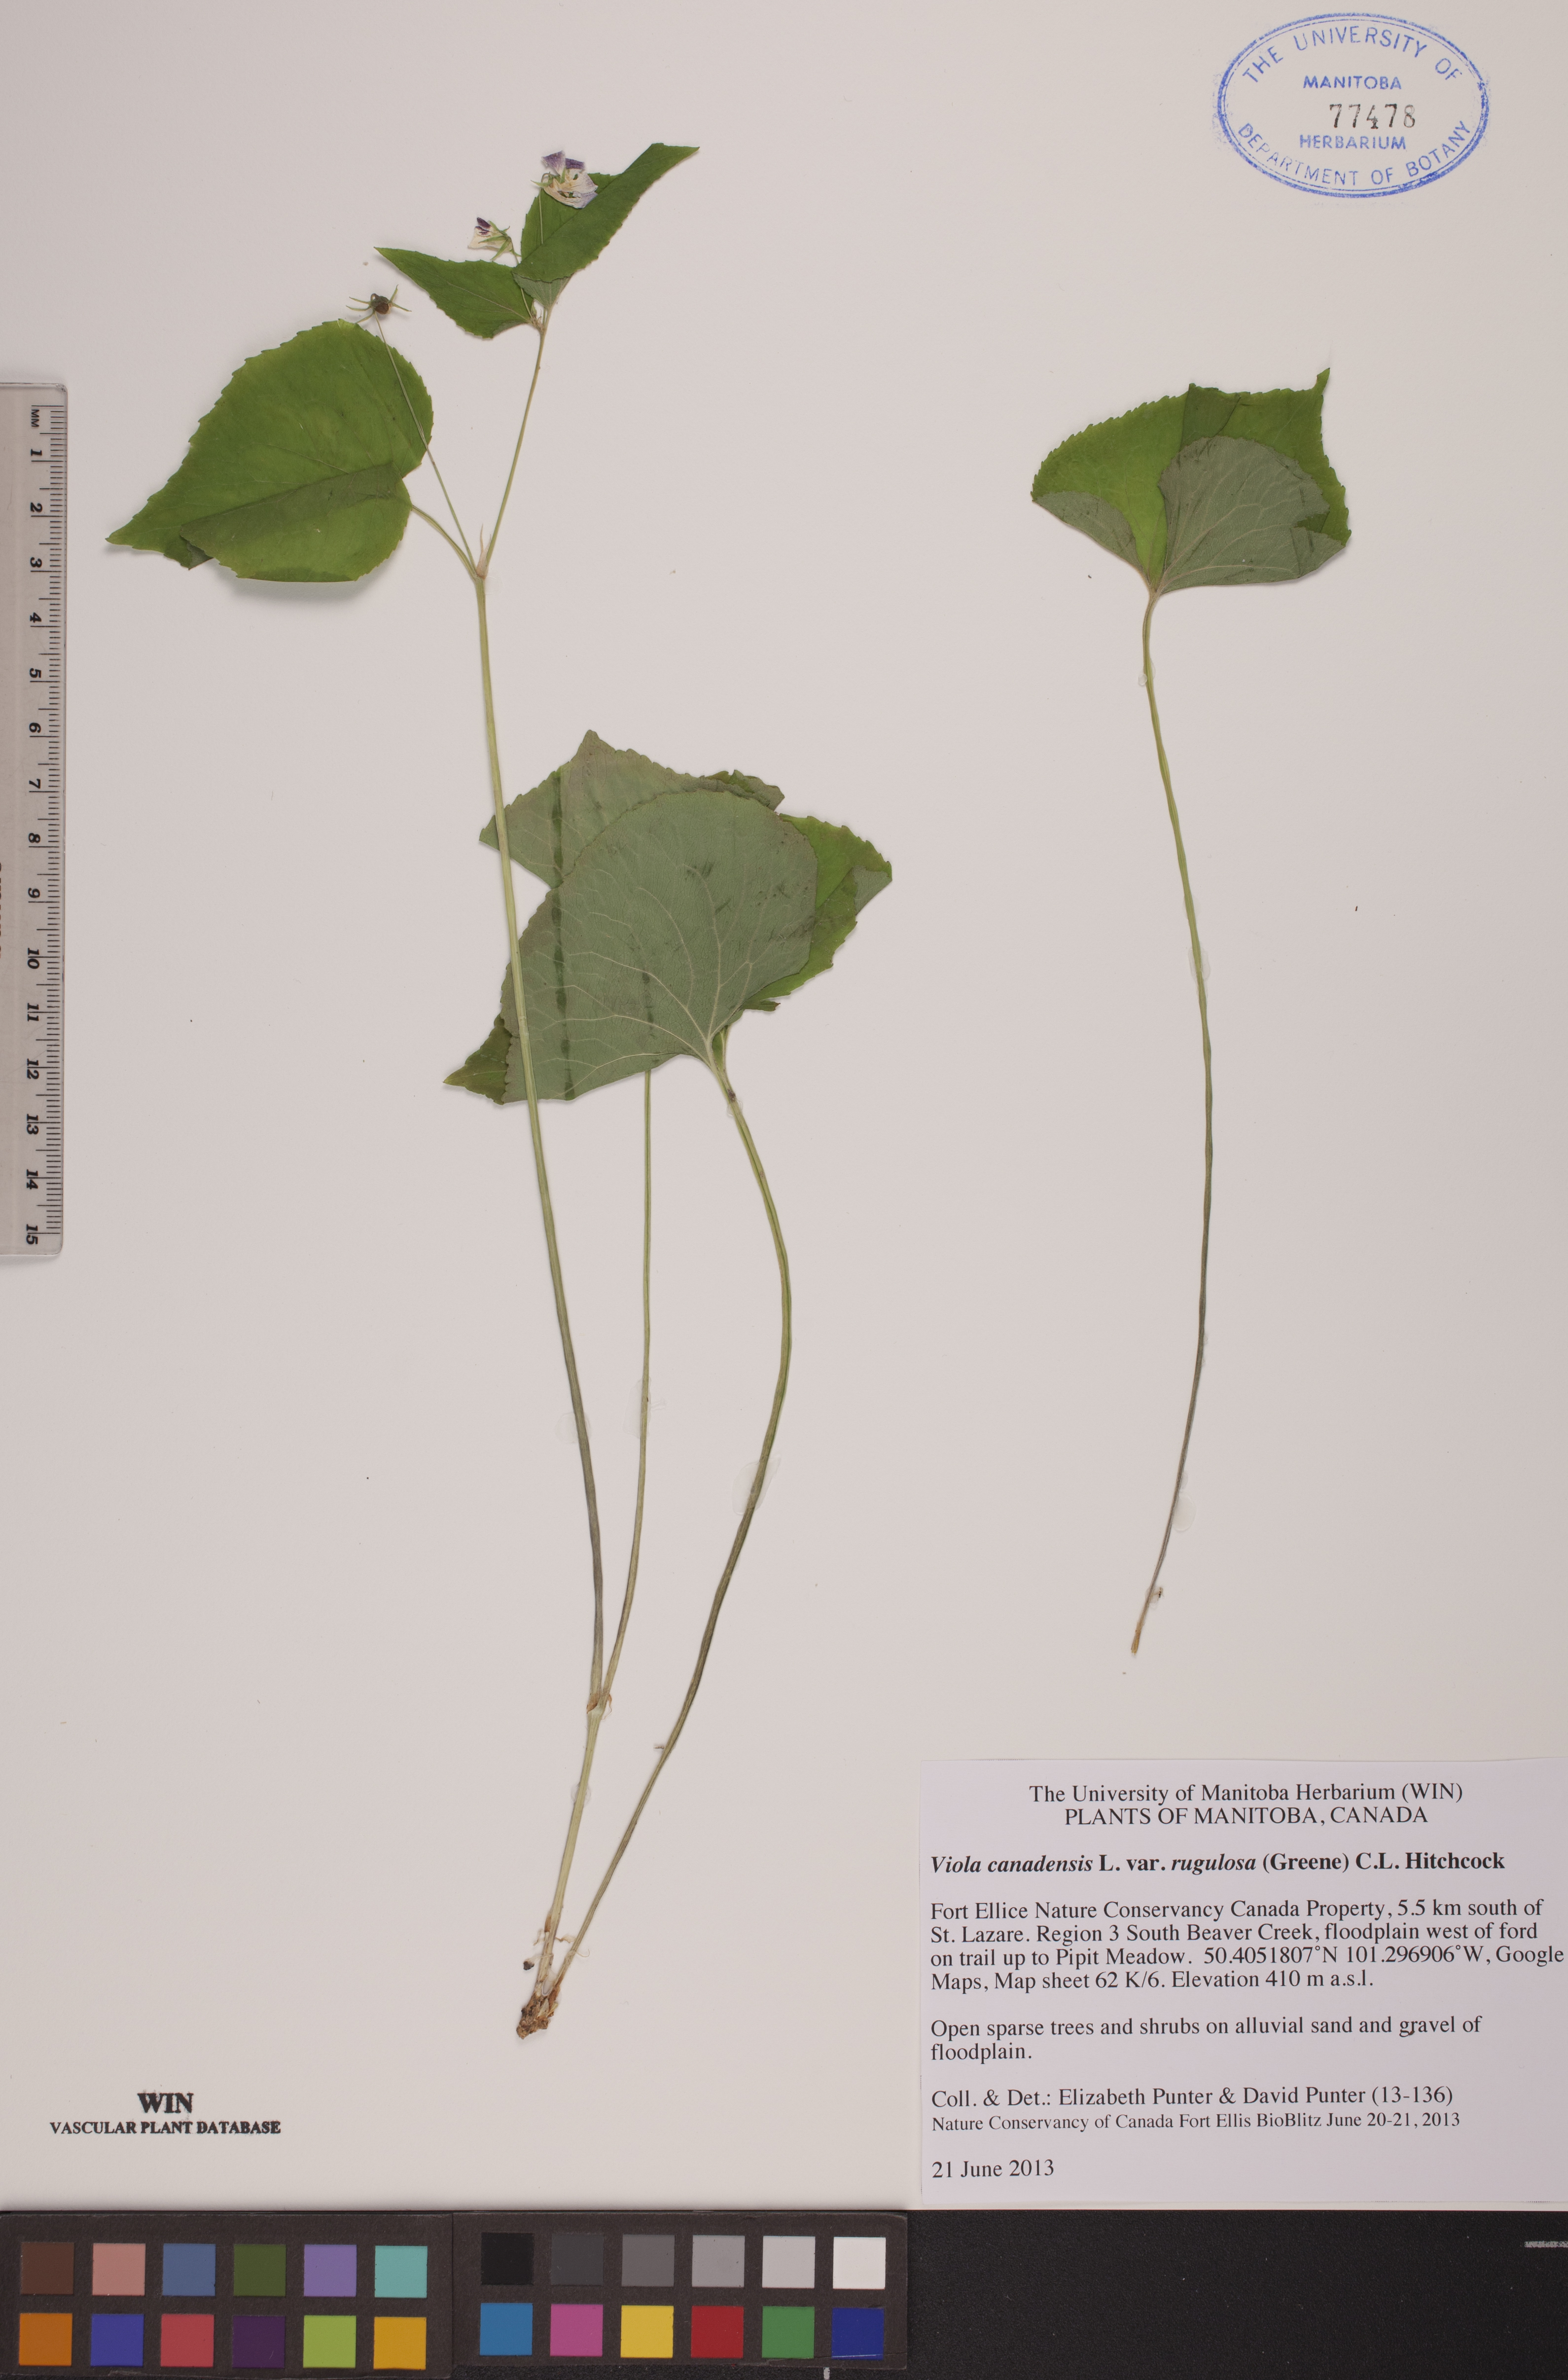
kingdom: Plantae
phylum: Tracheophyta
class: Magnoliopsida
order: Malpighiales
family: Violaceae
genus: Viola
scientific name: Viola rugulosa
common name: Creeping-root violet
